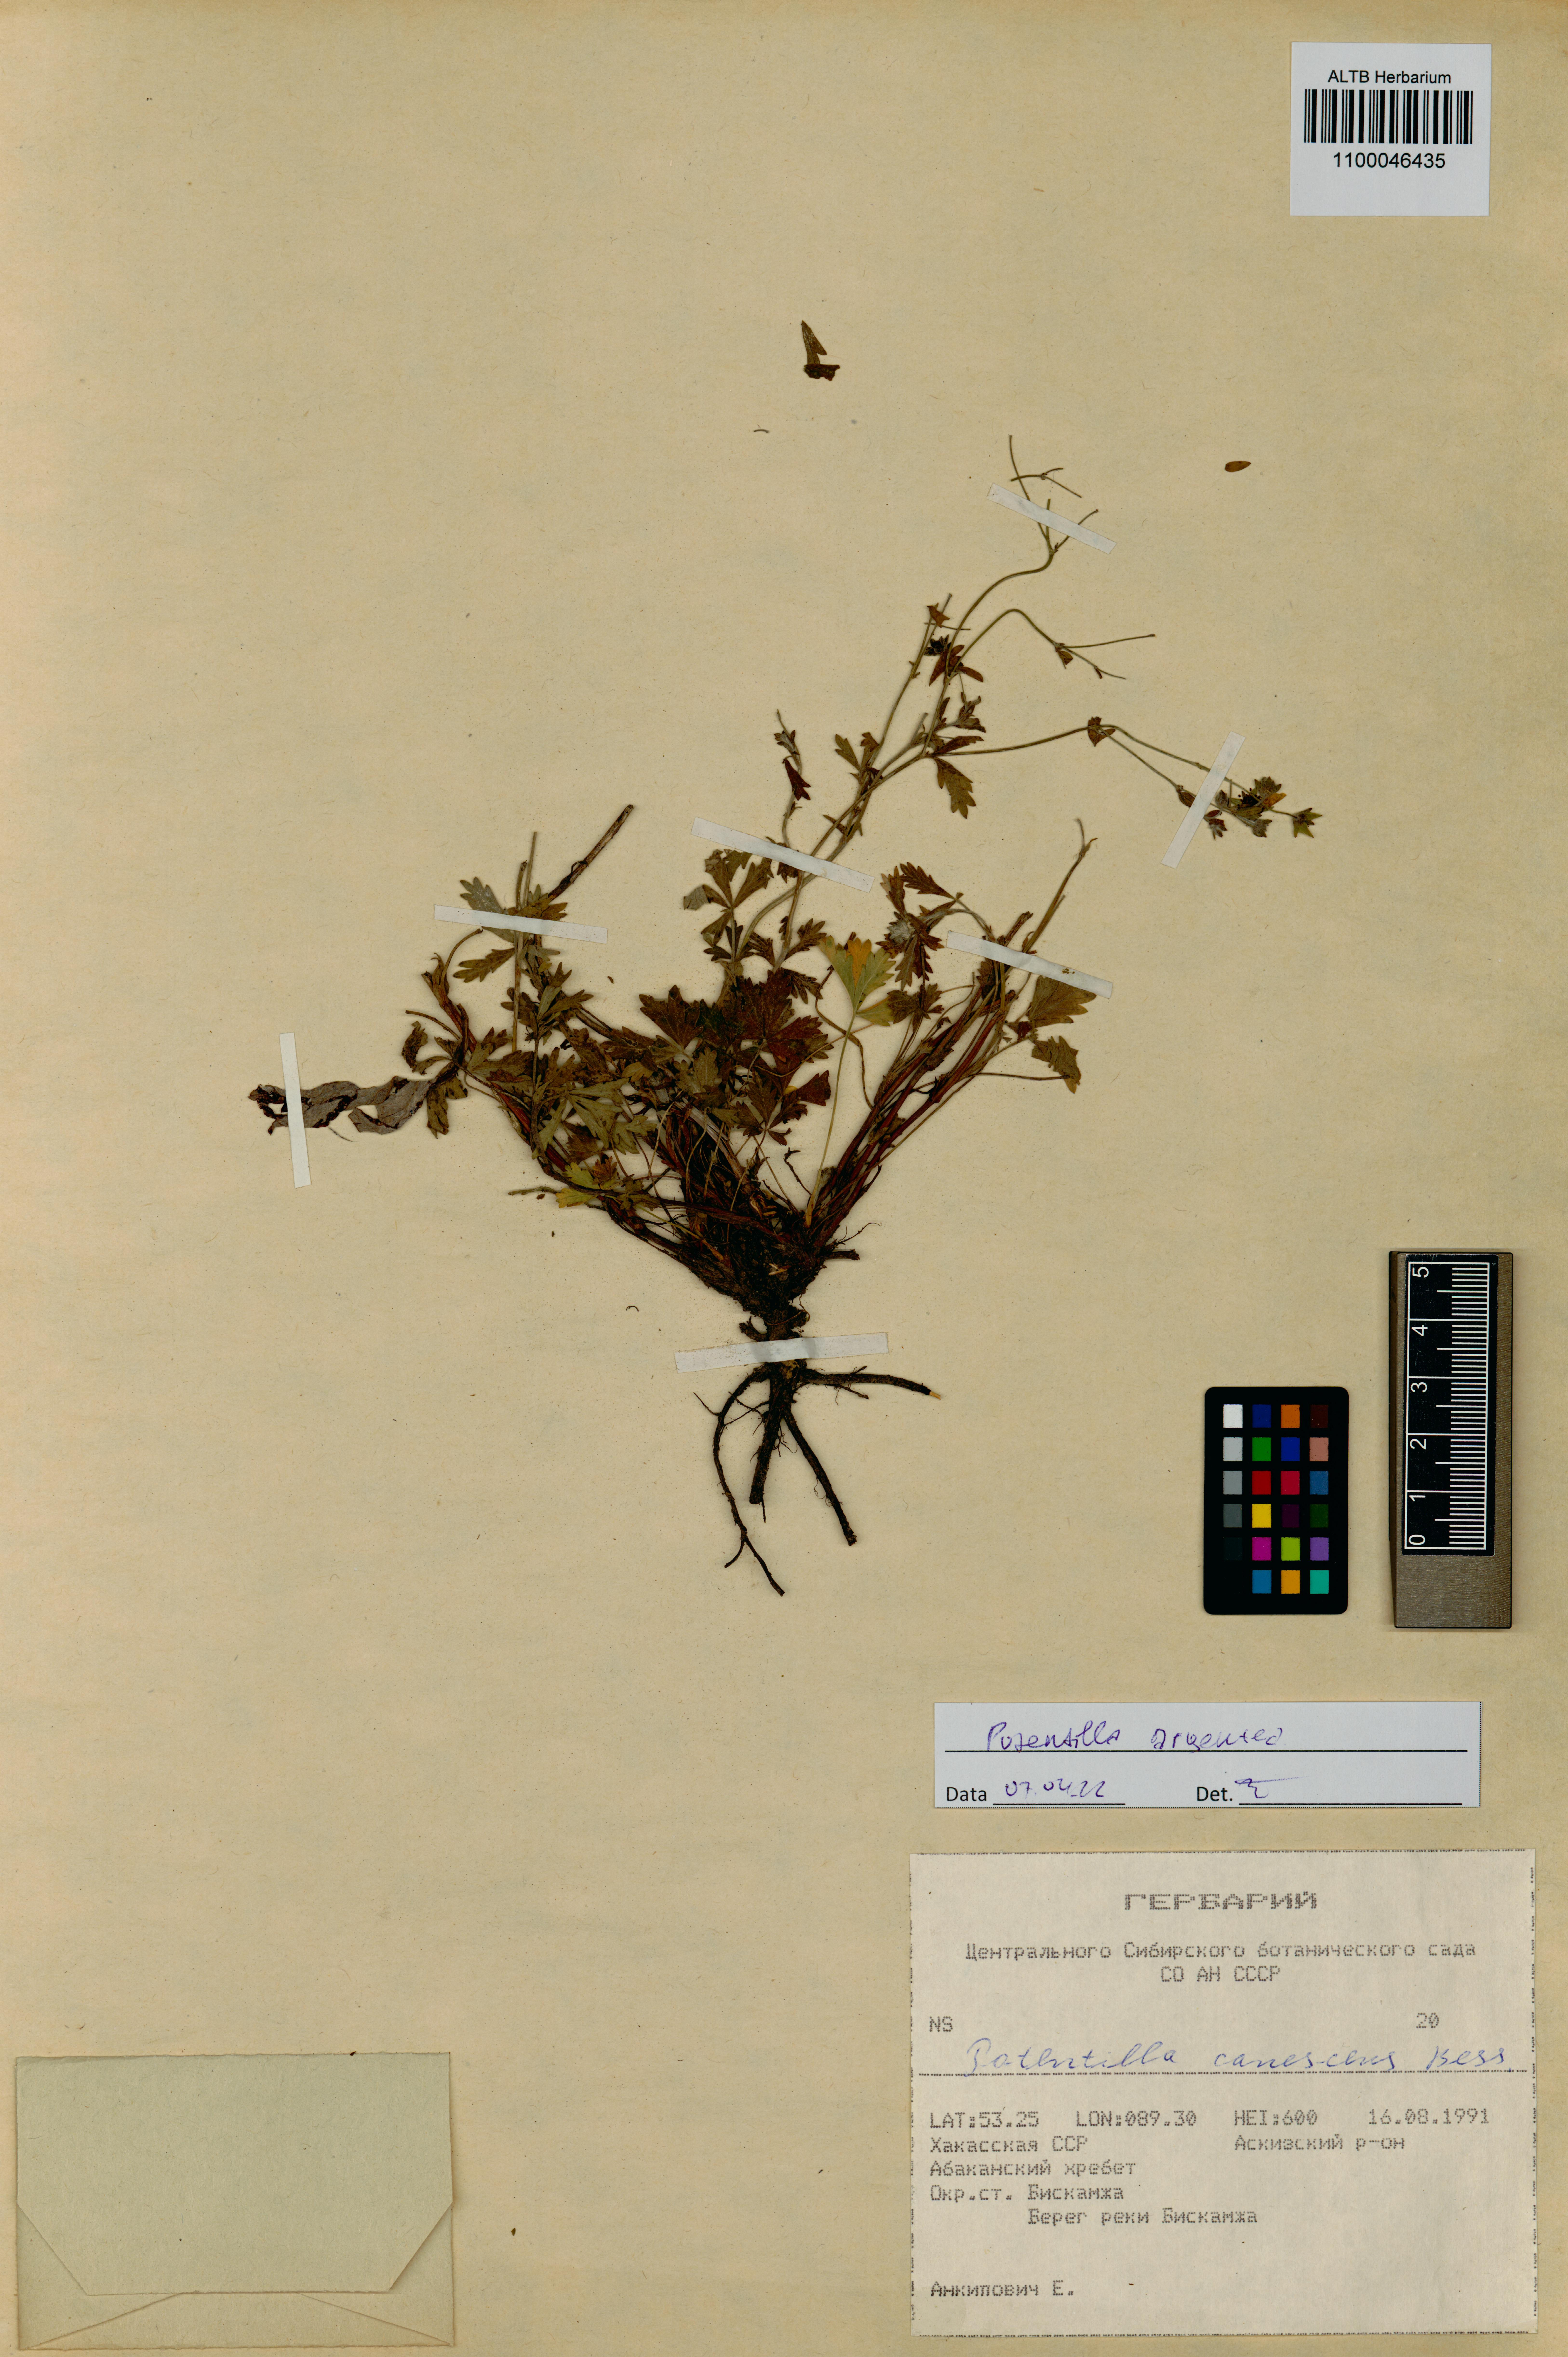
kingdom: Plantae
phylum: Tracheophyta
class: Magnoliopsida
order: Rosales
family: Rosaceae
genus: Potentilla
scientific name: Potentilla argentea
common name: Hoary cinquefoil
